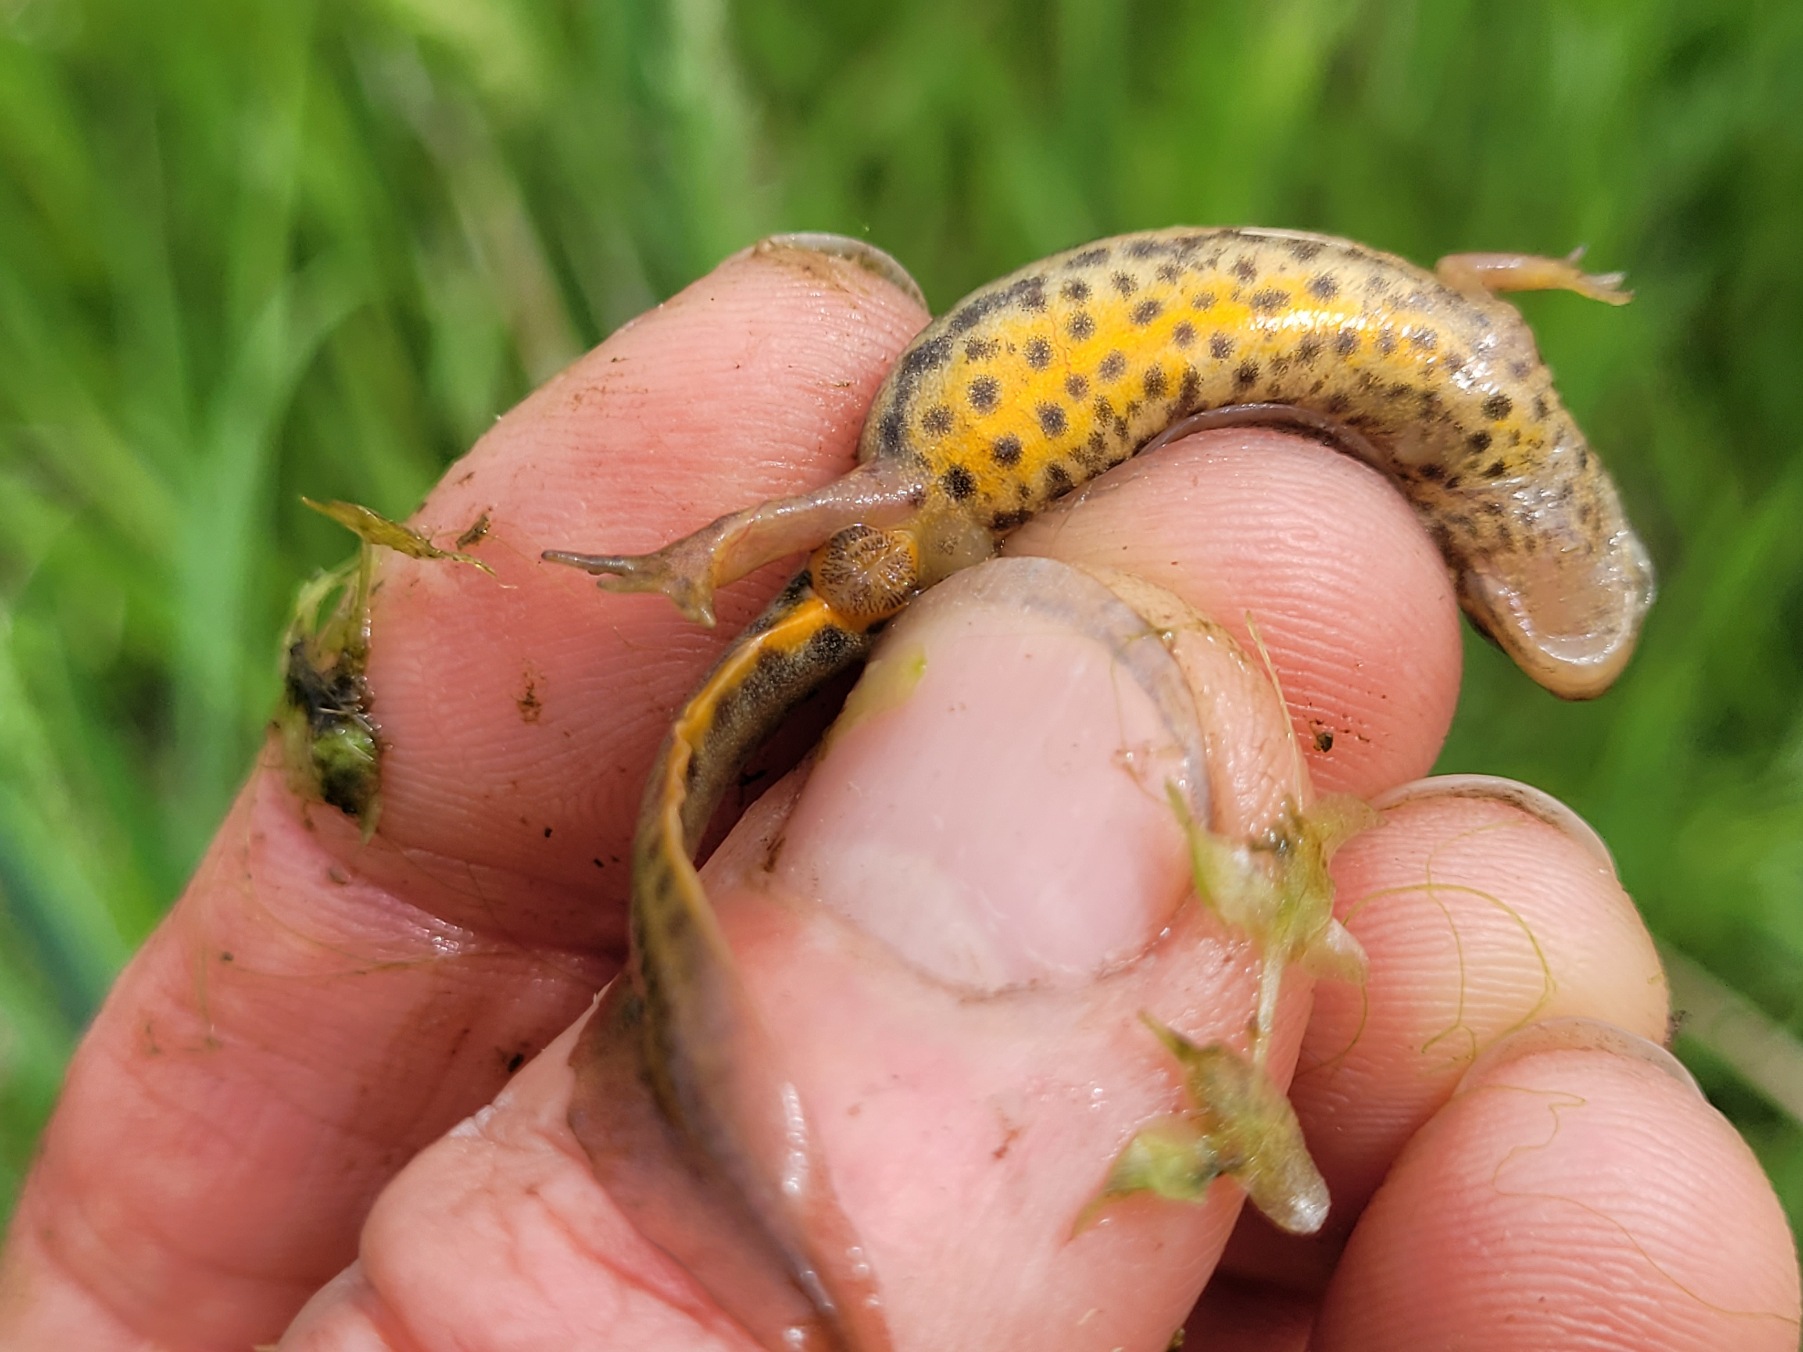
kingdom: Animalia
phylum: Chordata
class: Amphibia
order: Caudata
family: Salamandridae
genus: Lissotriton
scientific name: Lissotriton vulgaris
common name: Lille vandsalamander
